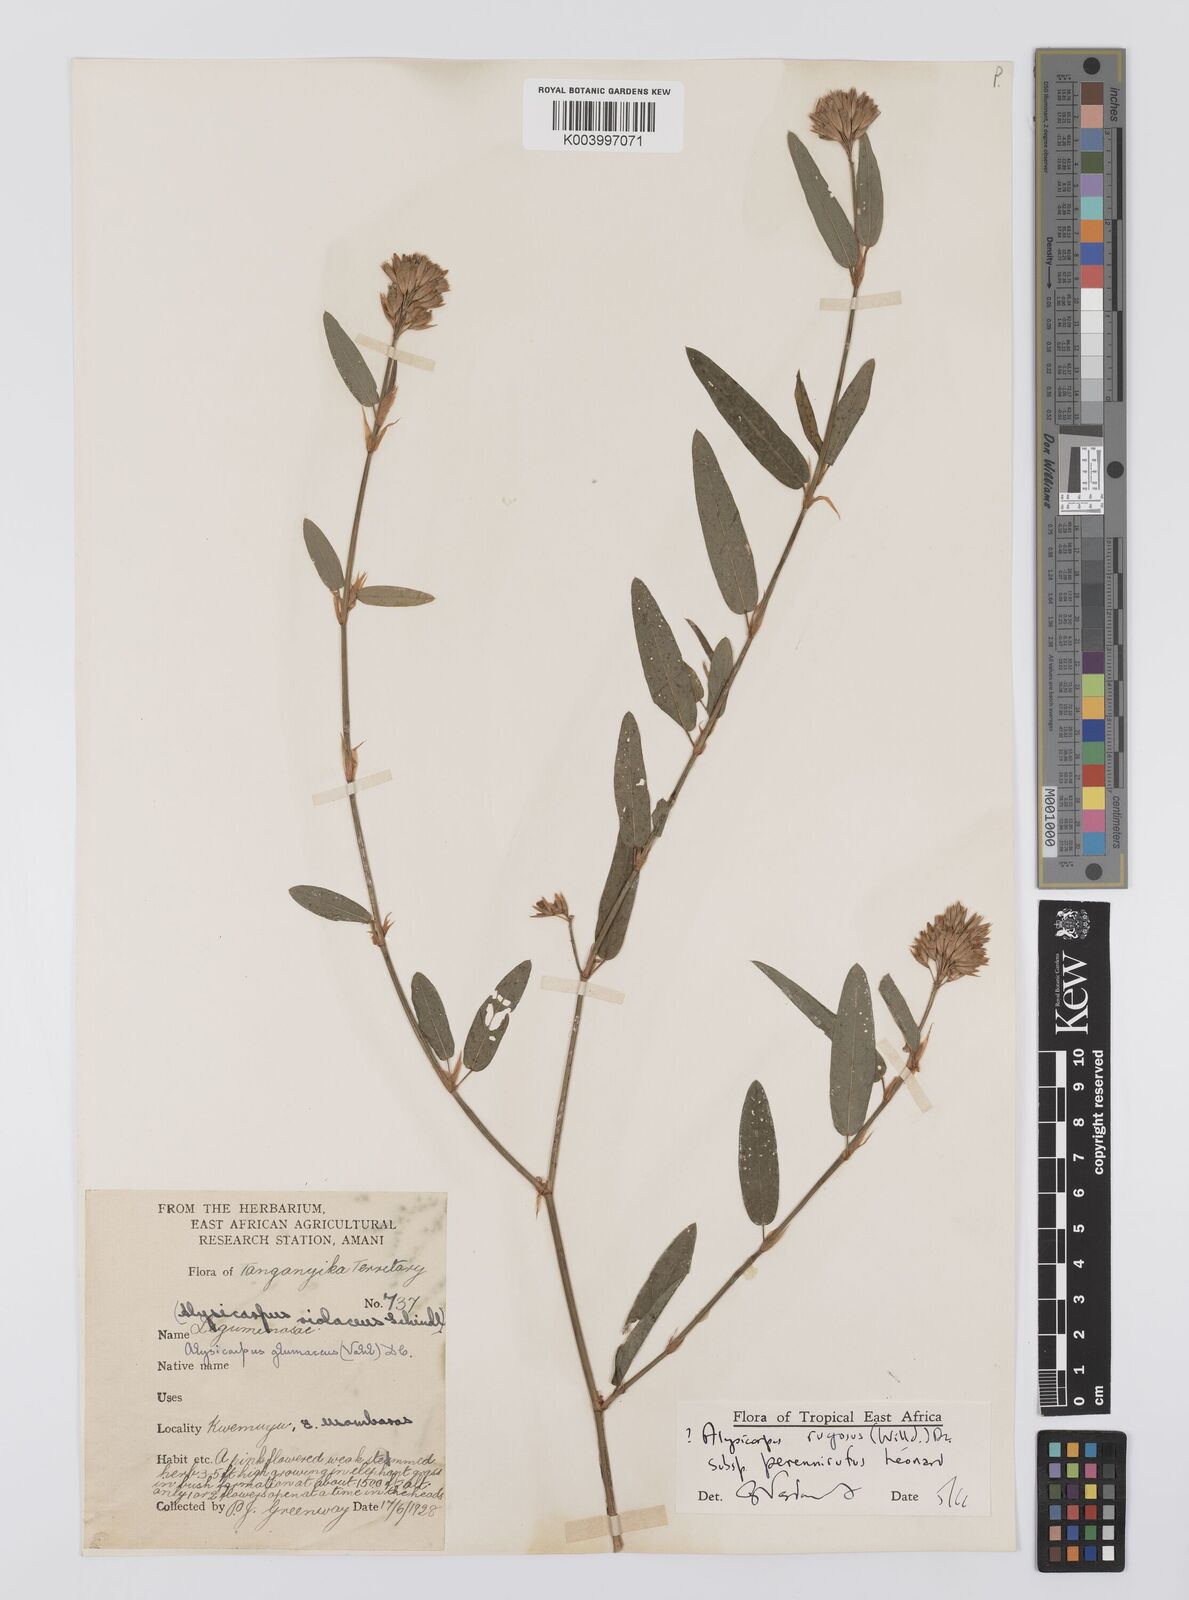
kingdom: Plantae
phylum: Tracheophyta
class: Magnoliopsida
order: Fabales
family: Fabaceae
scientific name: Fabaceae
